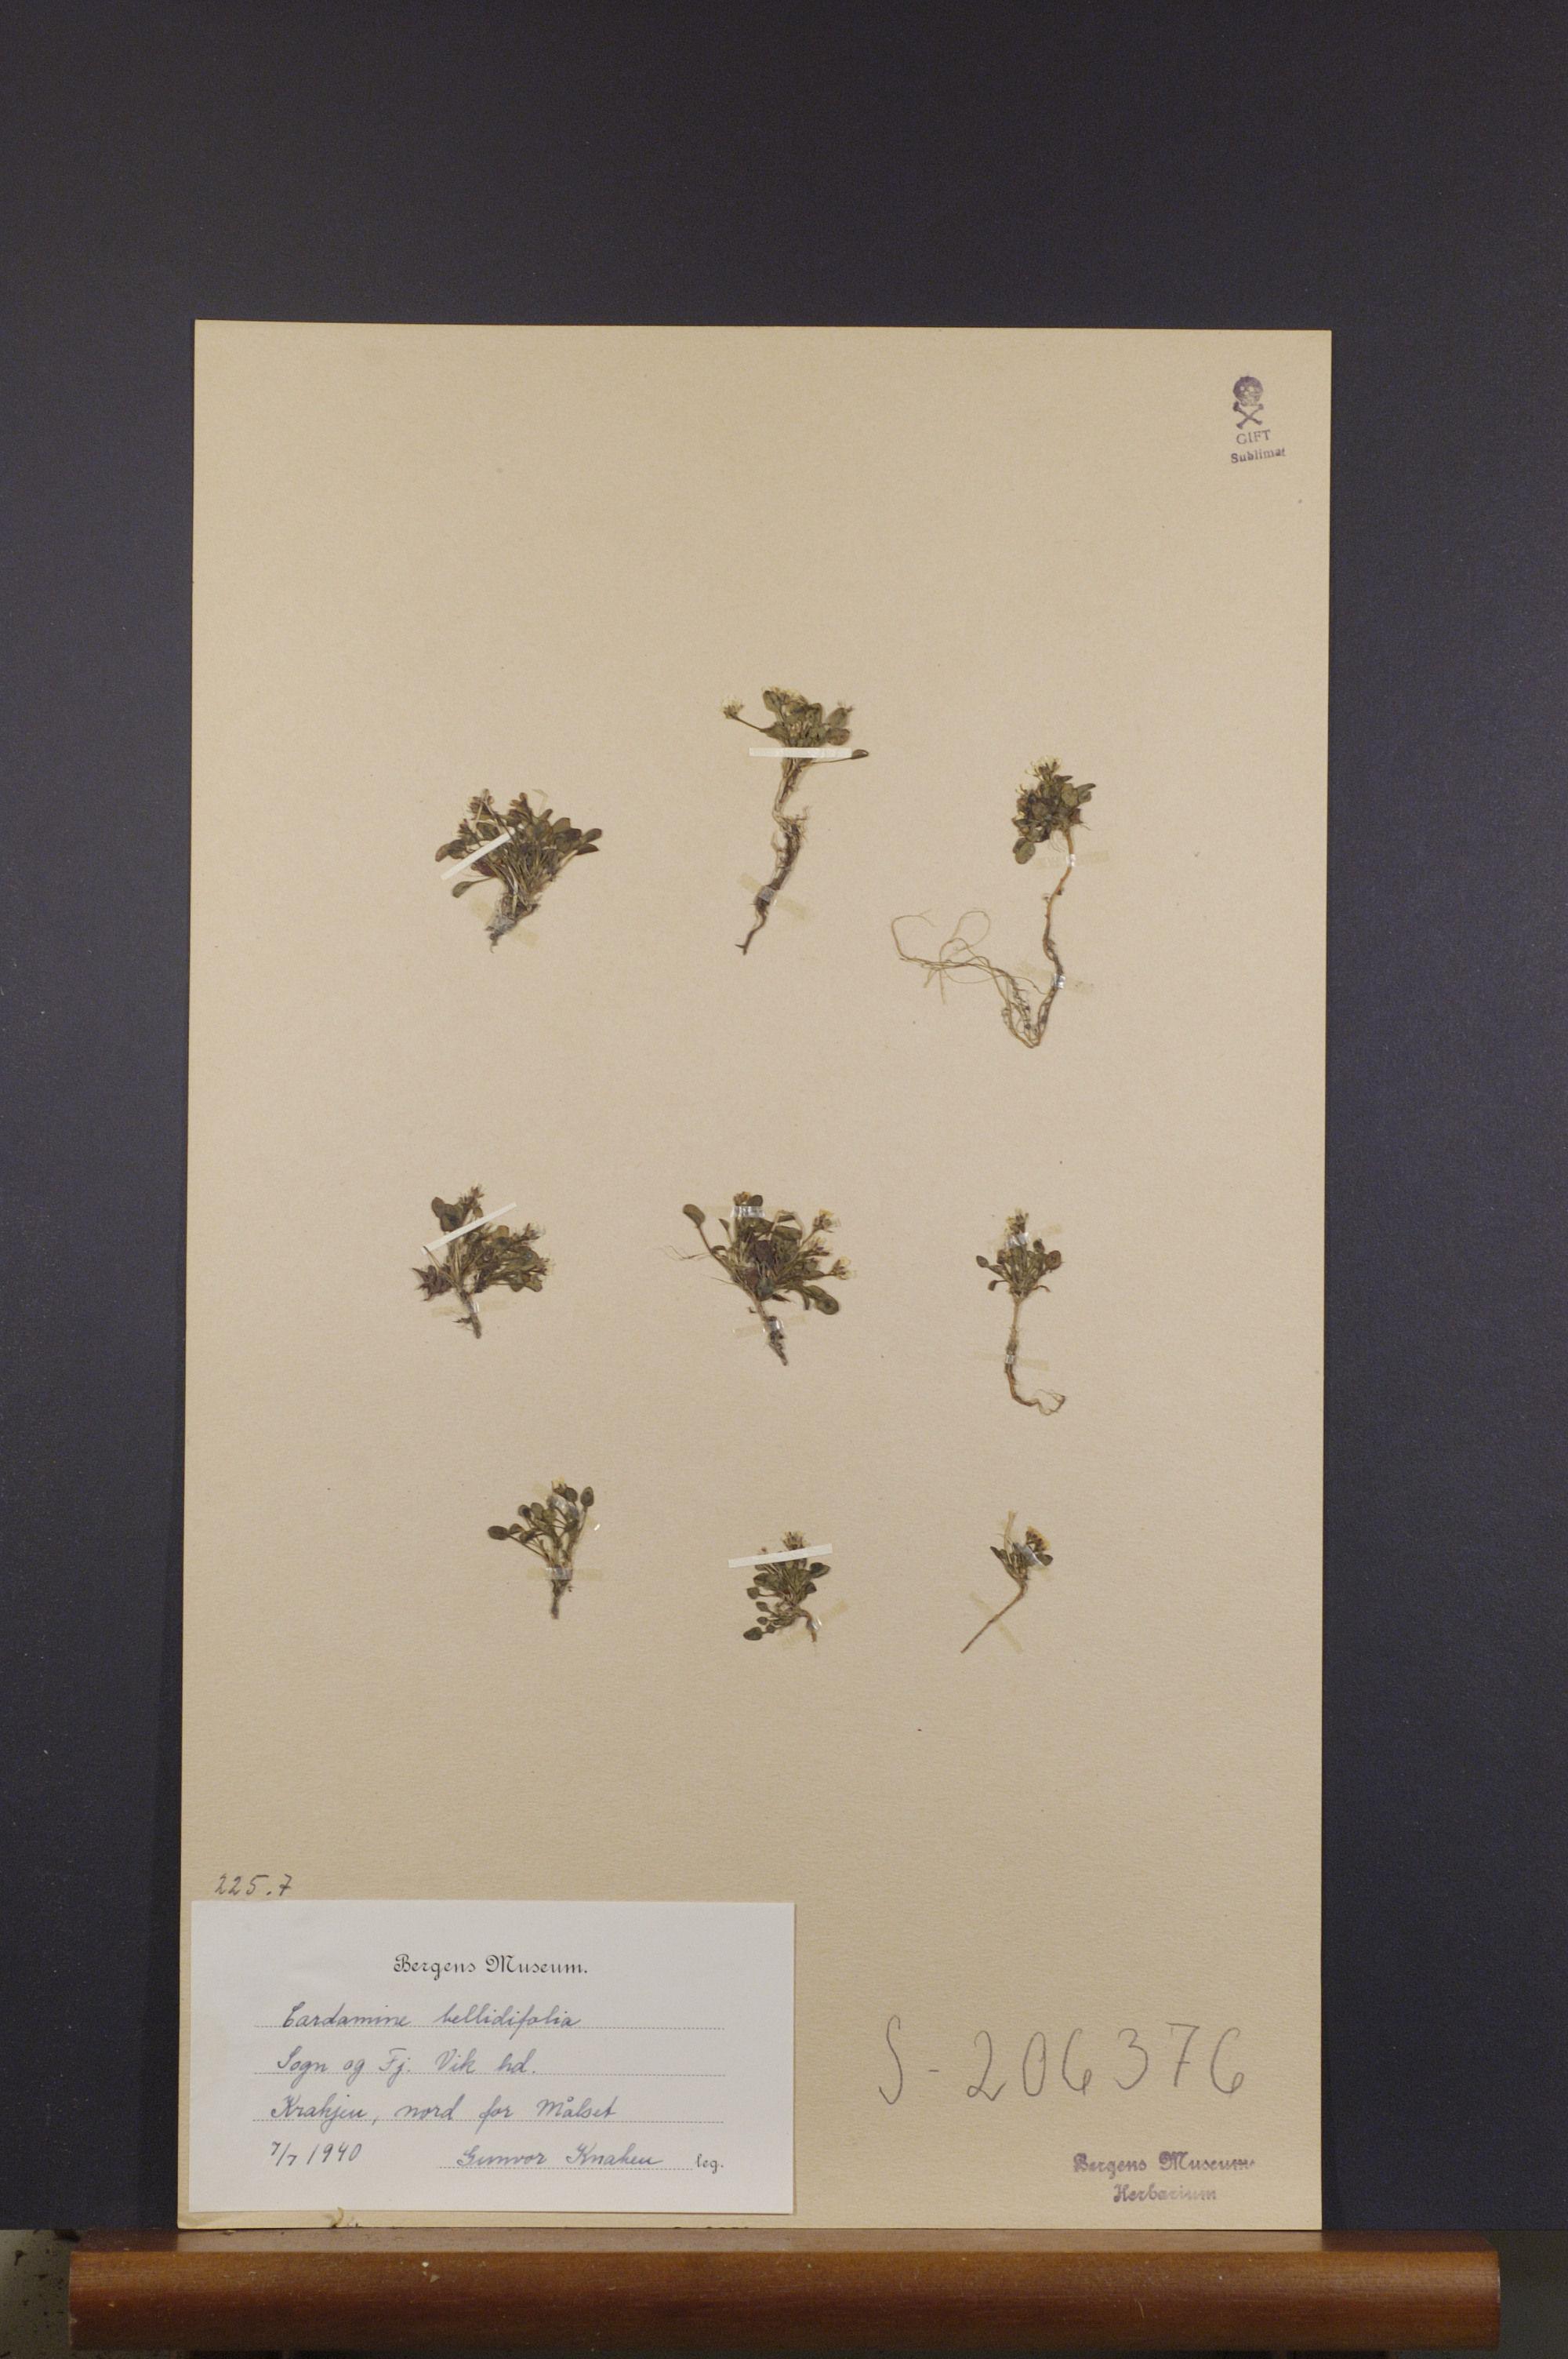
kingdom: Plantae
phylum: Tracheophyta
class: Magnoliopsida
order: Brassicales
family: Brassicaceae
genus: Cardamine
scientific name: Cardamine bellidifolia
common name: Alpine bittercress
